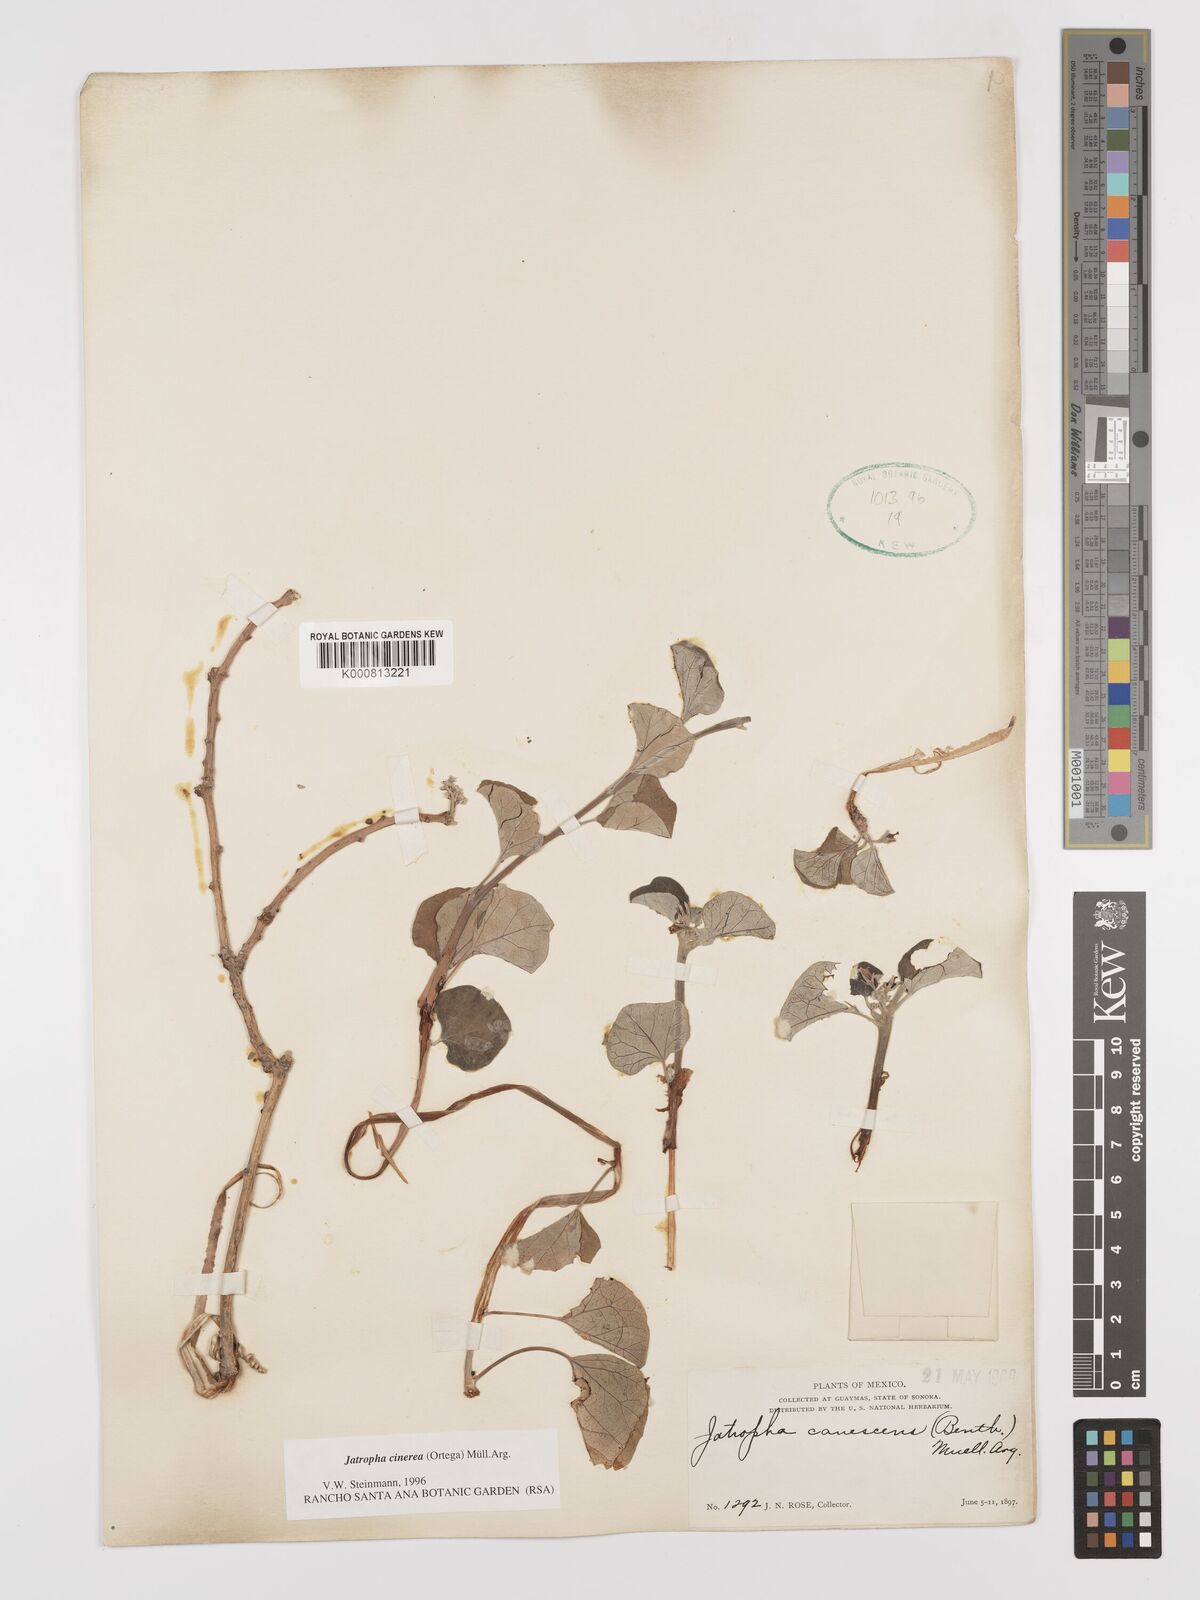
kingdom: Plantae
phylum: Tracheophyta
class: Magnoliopsida
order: Malpighiales
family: Euphorbiaceae
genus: Jatropha
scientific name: Jatropha
